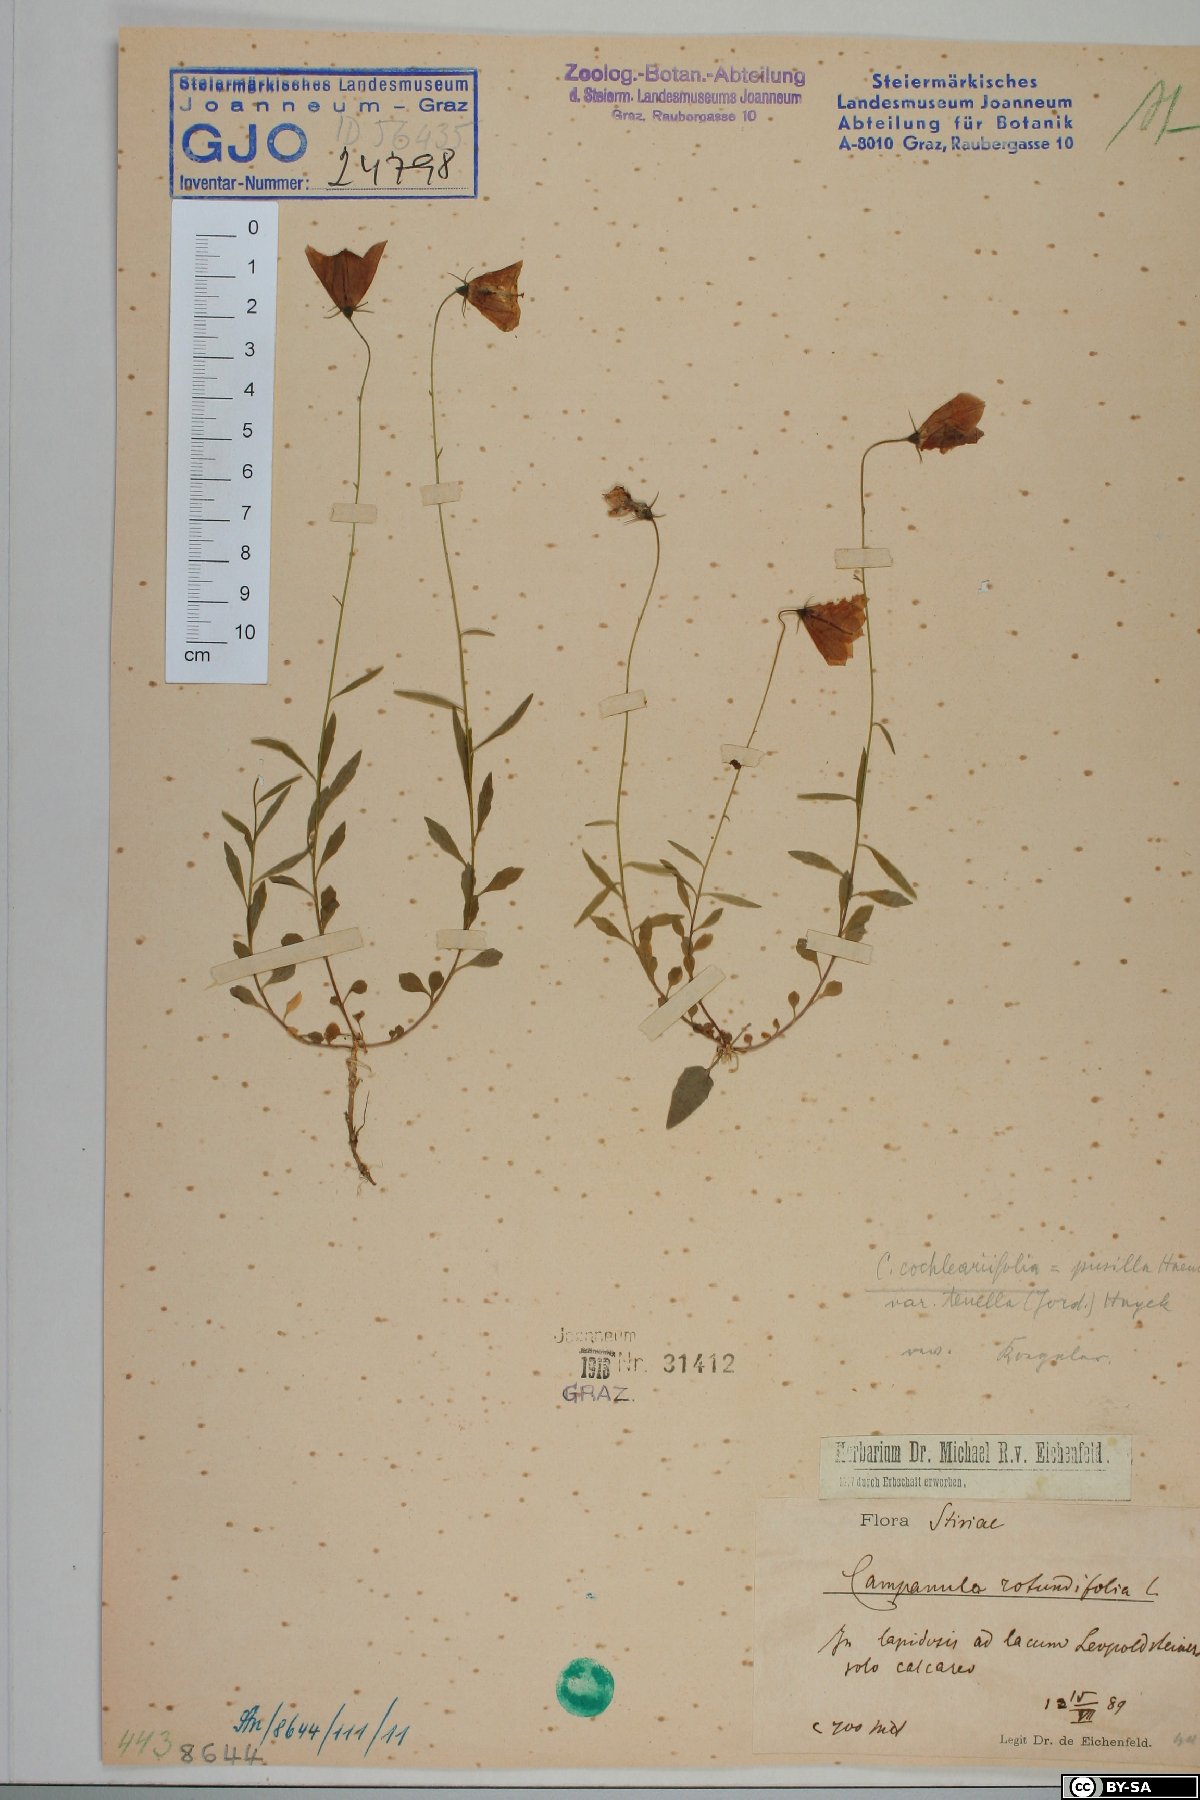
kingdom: Plantae
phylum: Tracheophyta
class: Magnoliopsida
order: Asterales
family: Campanulaceae
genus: Campanula
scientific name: Campanula cochleariifolia
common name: Fairies'-thimbles
